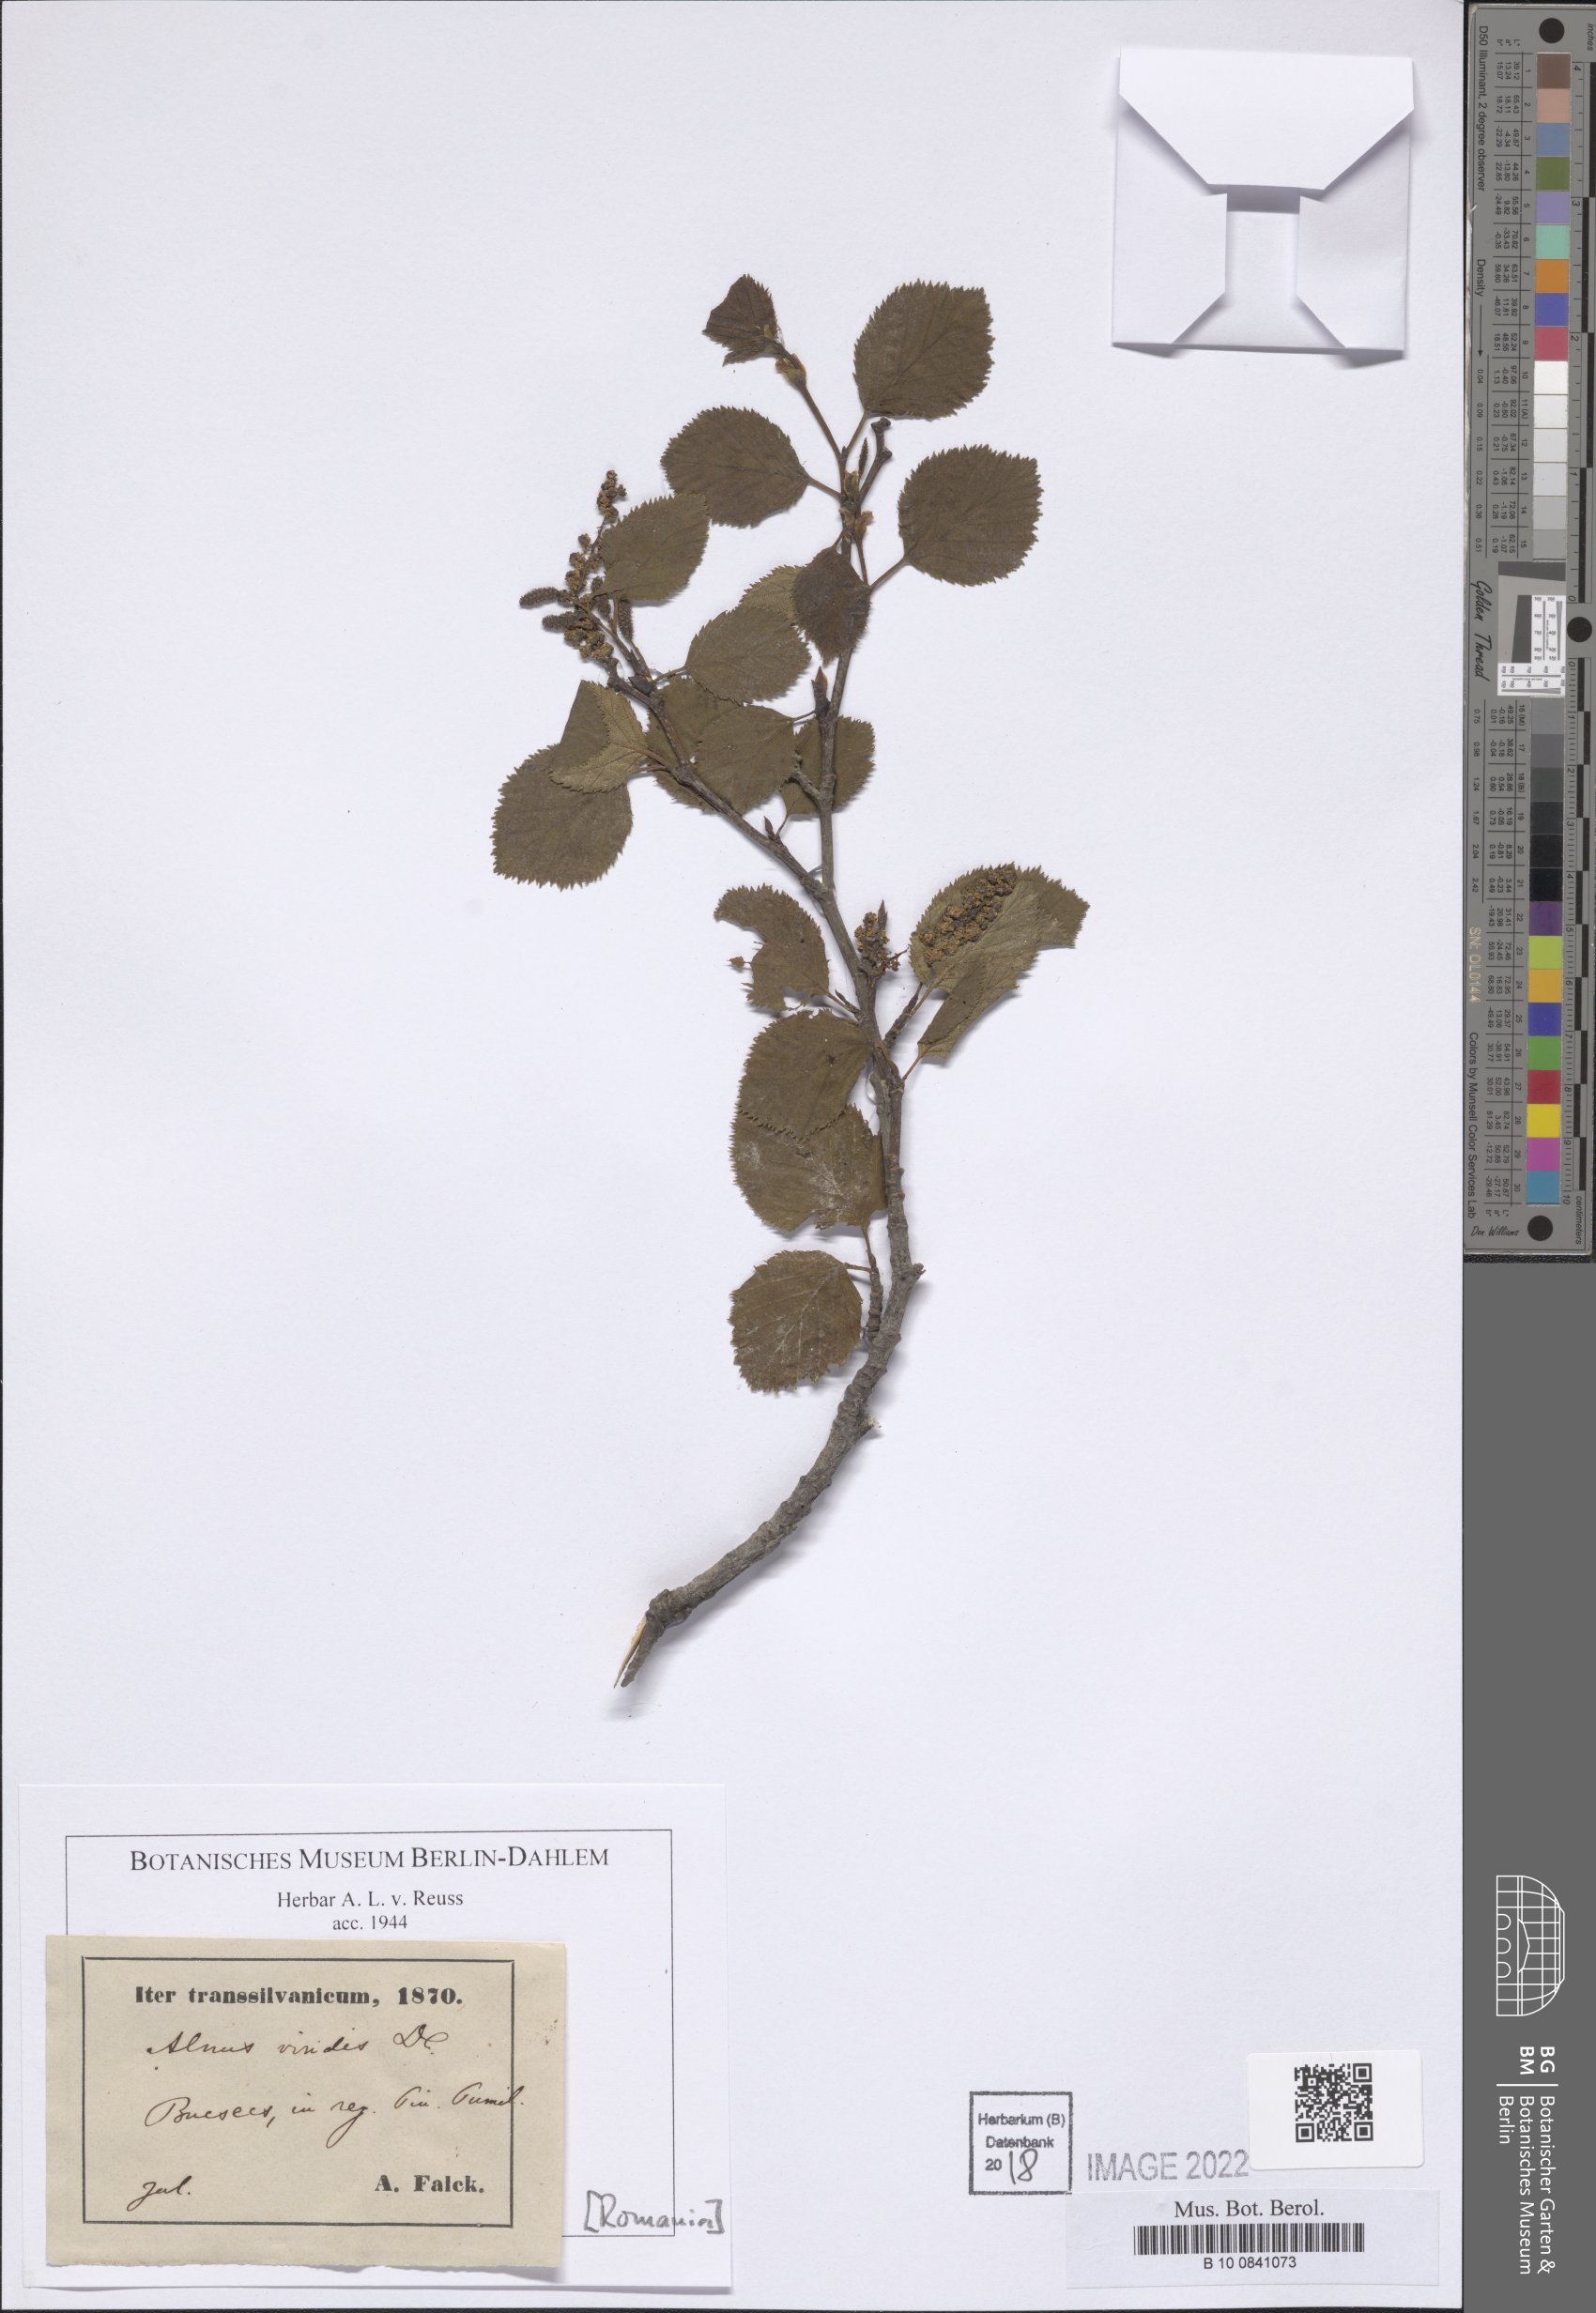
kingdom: Plantae
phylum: Tracheophyta
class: Magnoliopsida
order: Fagales
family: Betulaceae
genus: Alnus
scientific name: Alnus alnobetula
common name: Green alder
